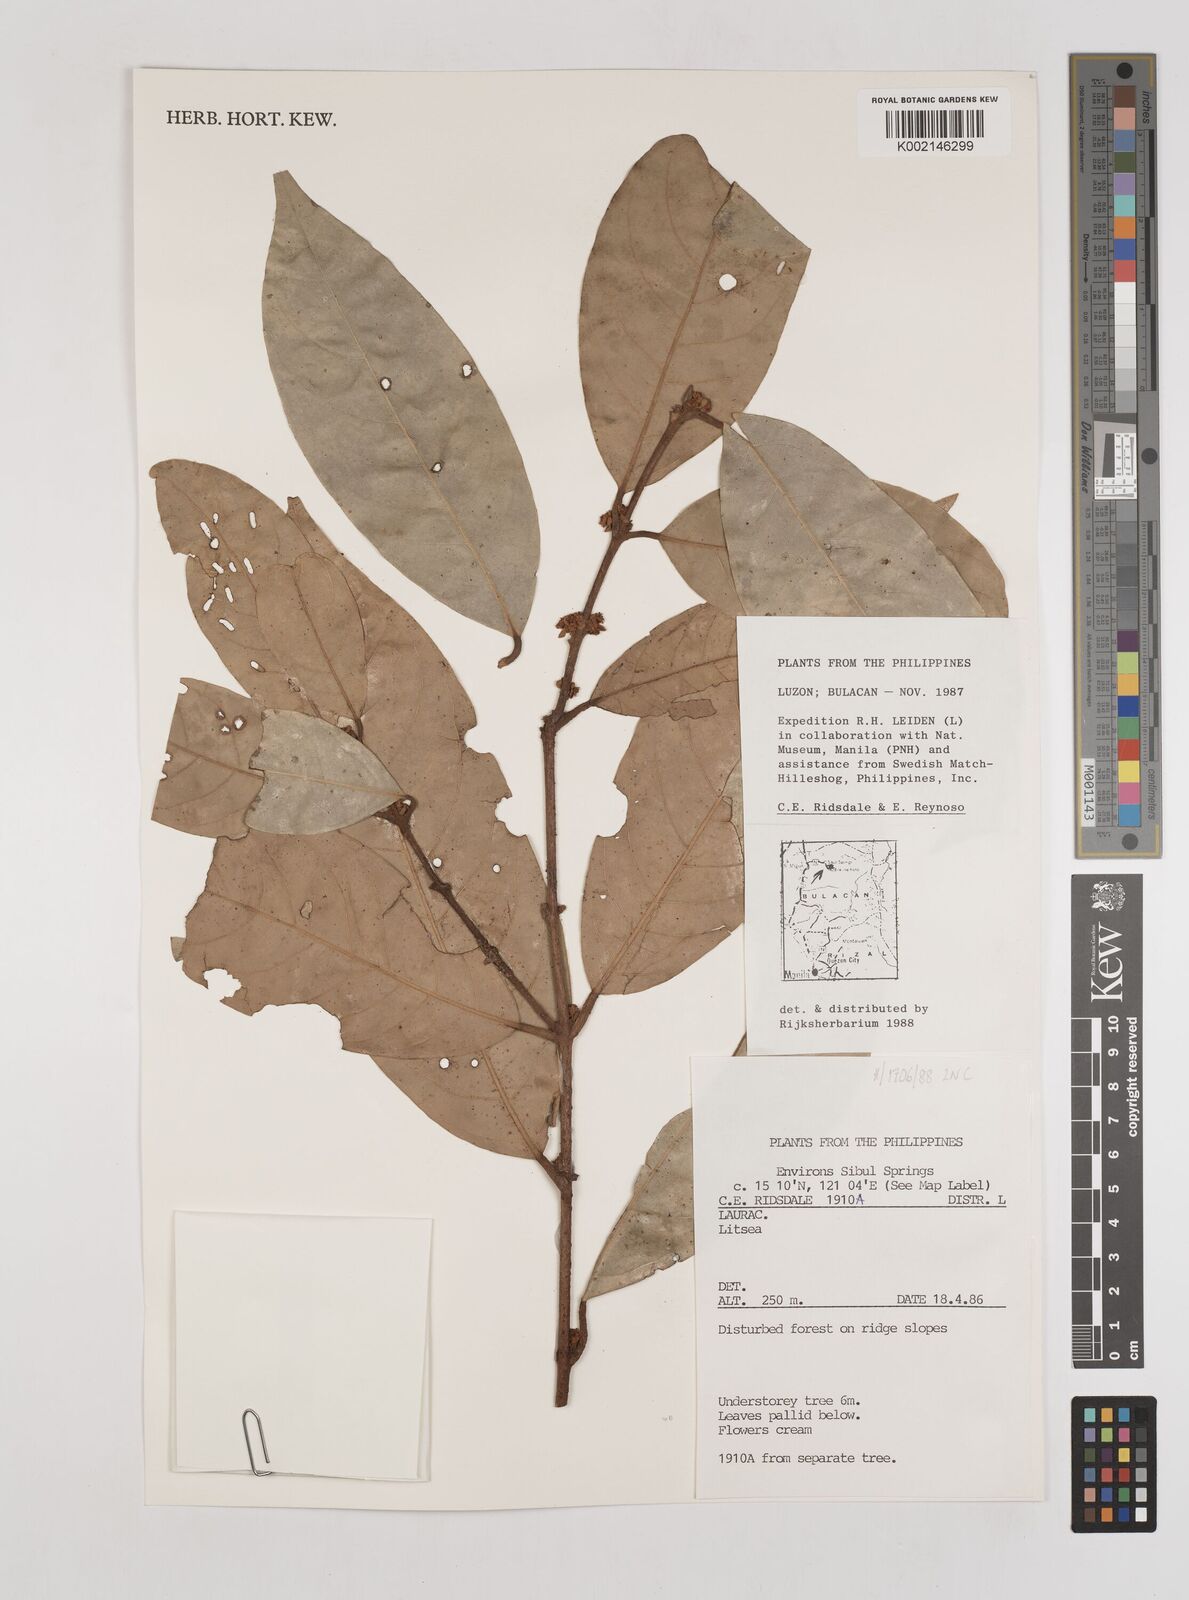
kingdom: Plantae
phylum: Tracheophyta
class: Magnoliopsida
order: Laurales
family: Lauraceae
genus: Litsea
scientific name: Litsea
